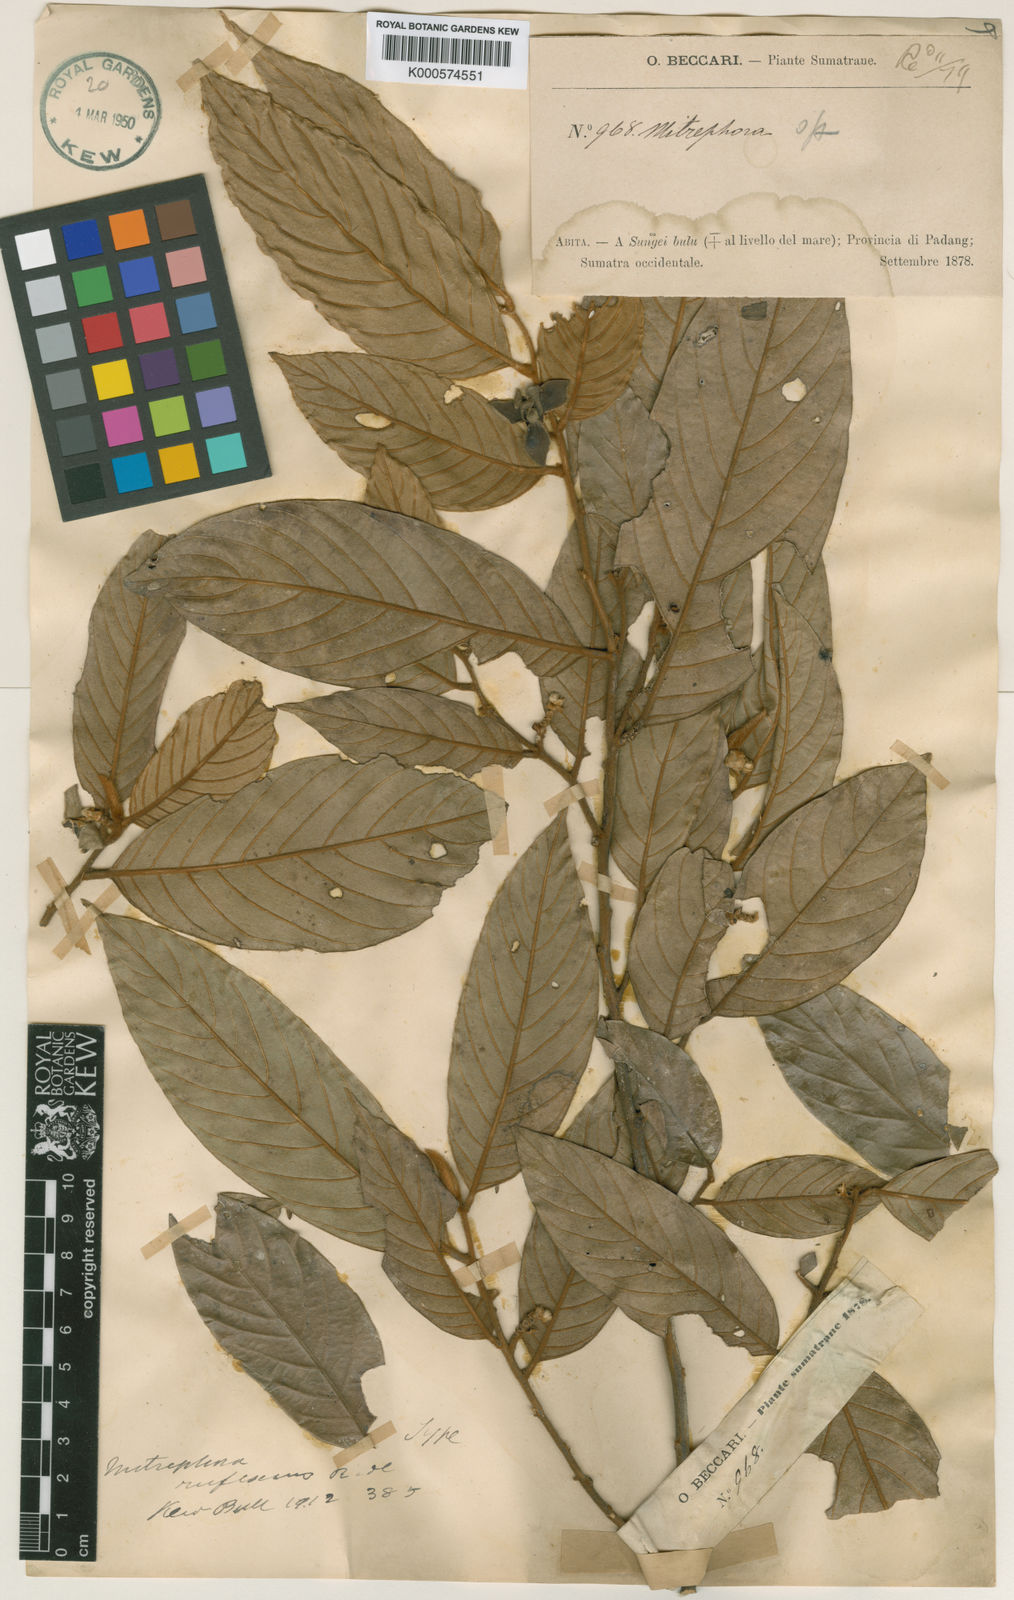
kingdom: Plantae
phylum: Tracheophyta
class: Magnoliopsida
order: Magnoliales
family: Annonaceae
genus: Mitrephora
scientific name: Mitrephora rufescens
